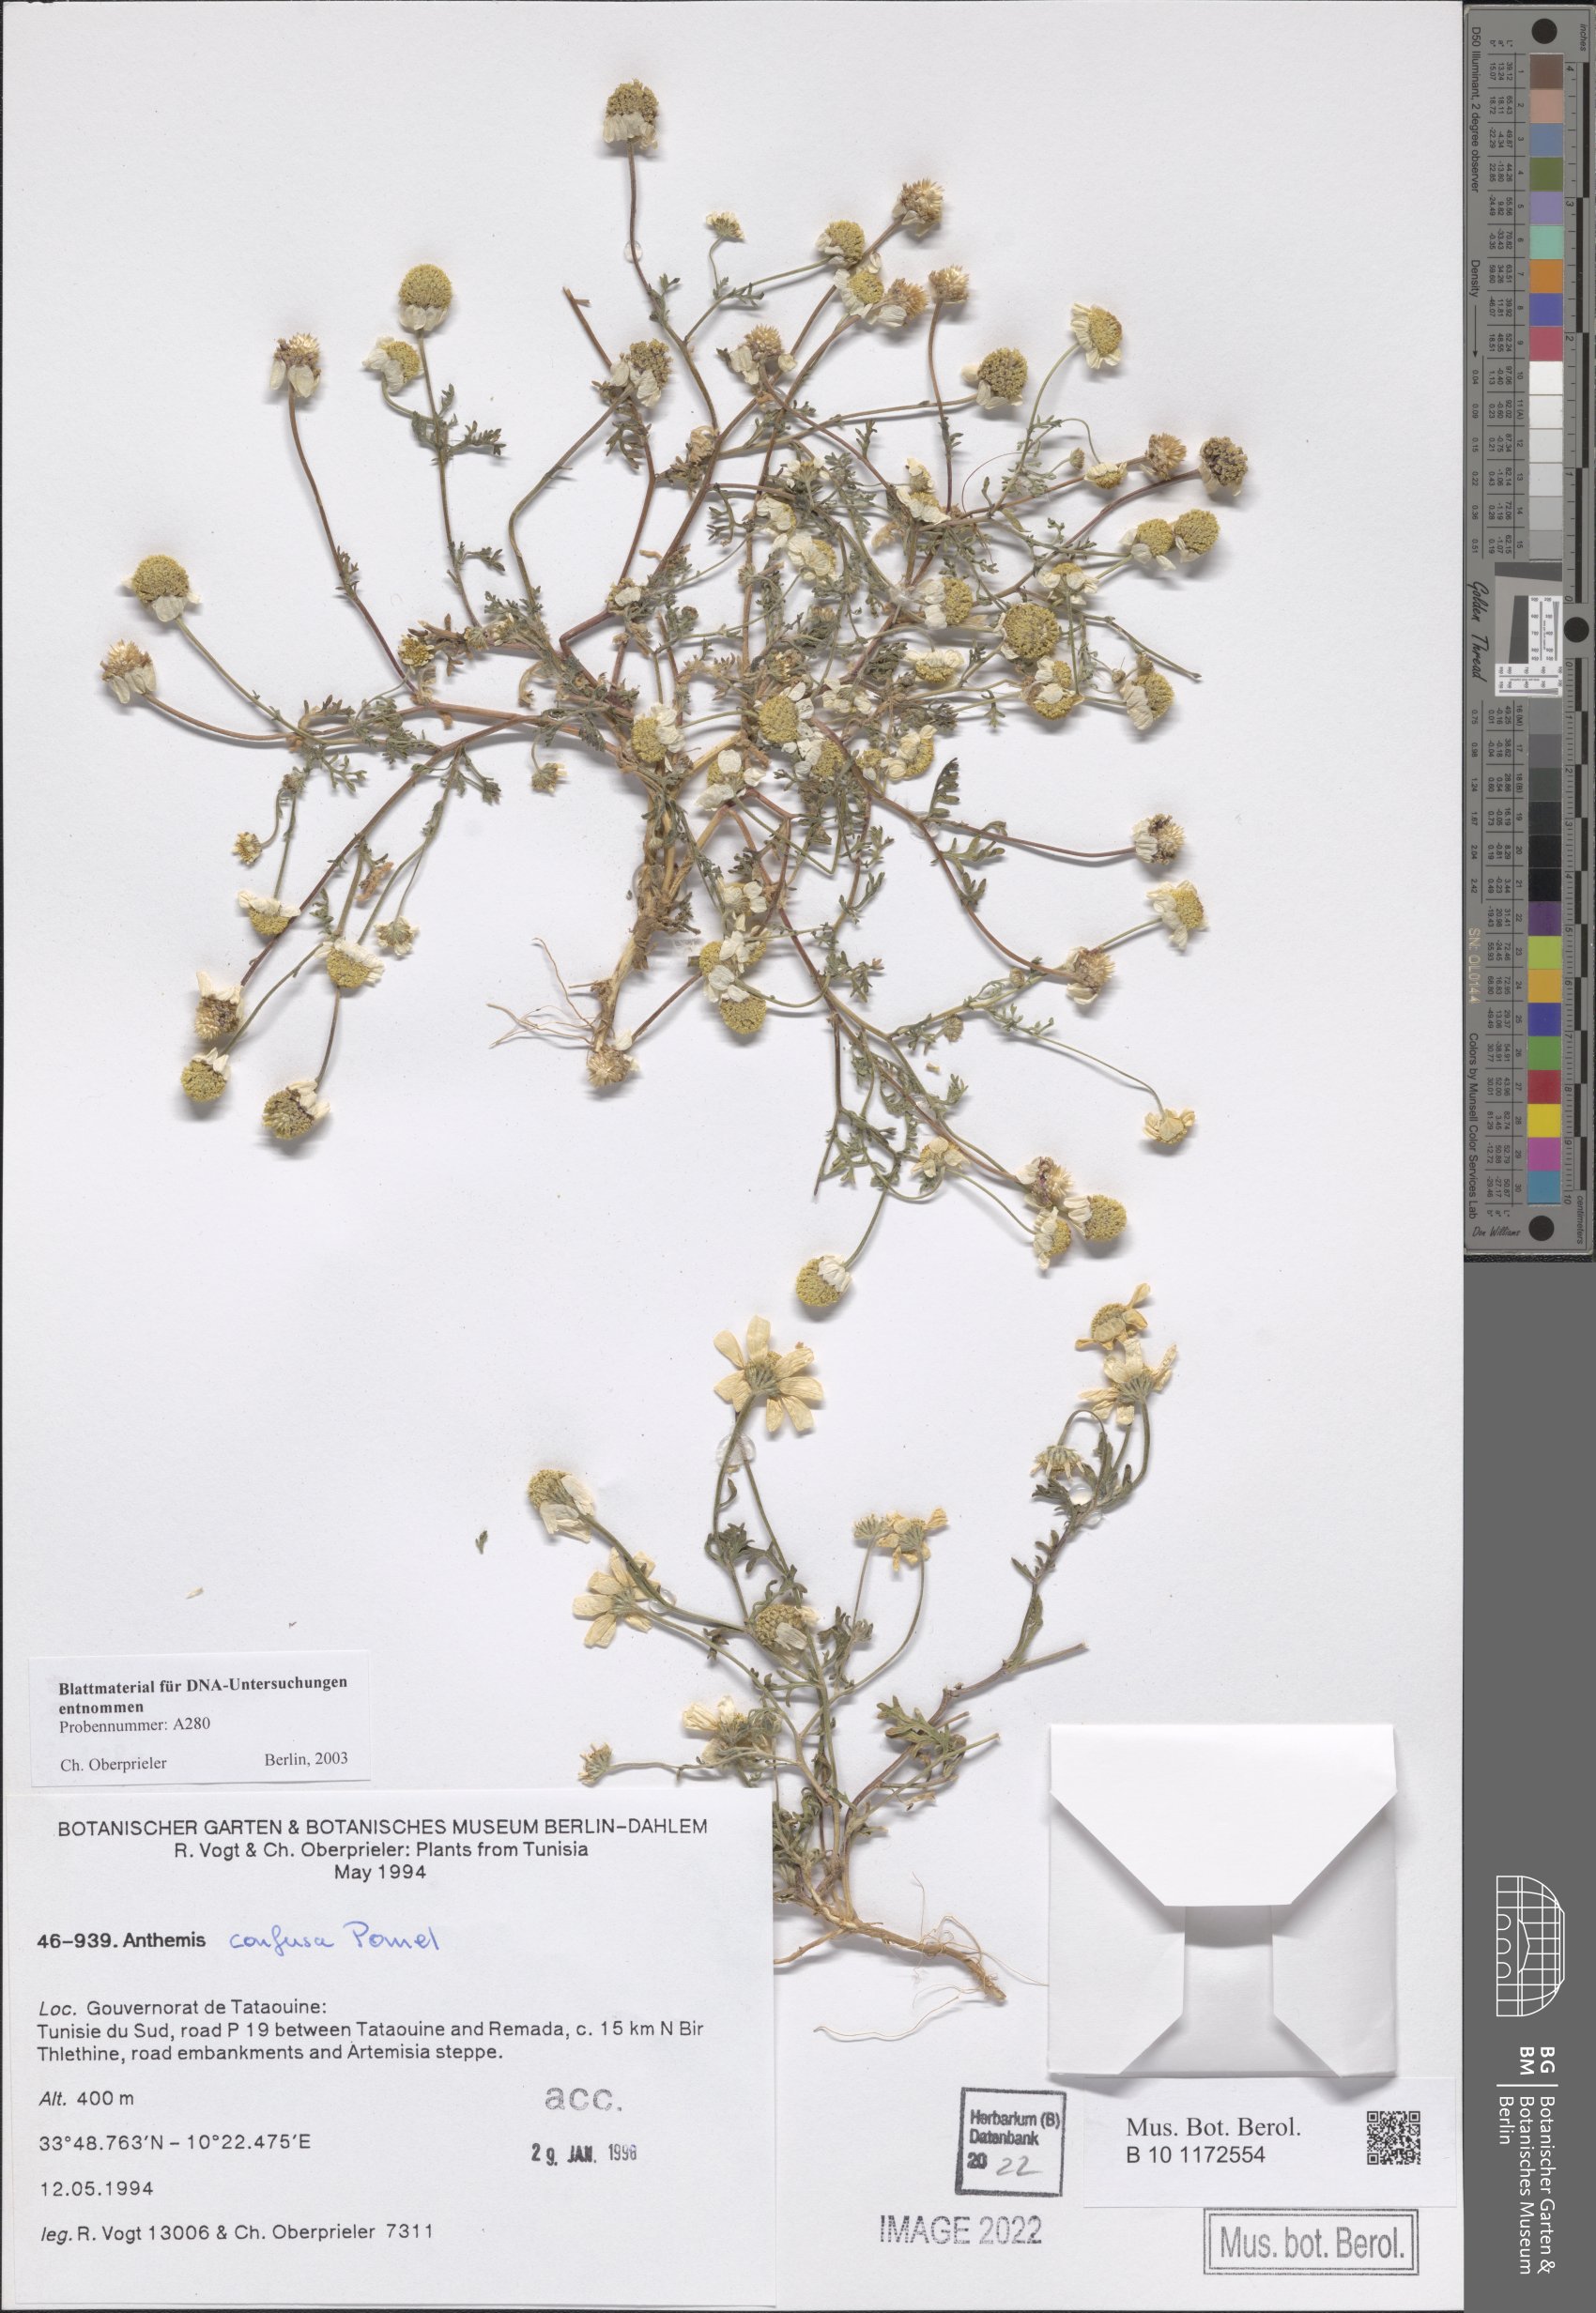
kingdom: Plantae
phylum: Tracheophyta
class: Magnoliopsida
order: Asterales
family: Asteraceae
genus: Anthemis
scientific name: Anthemis confusa
